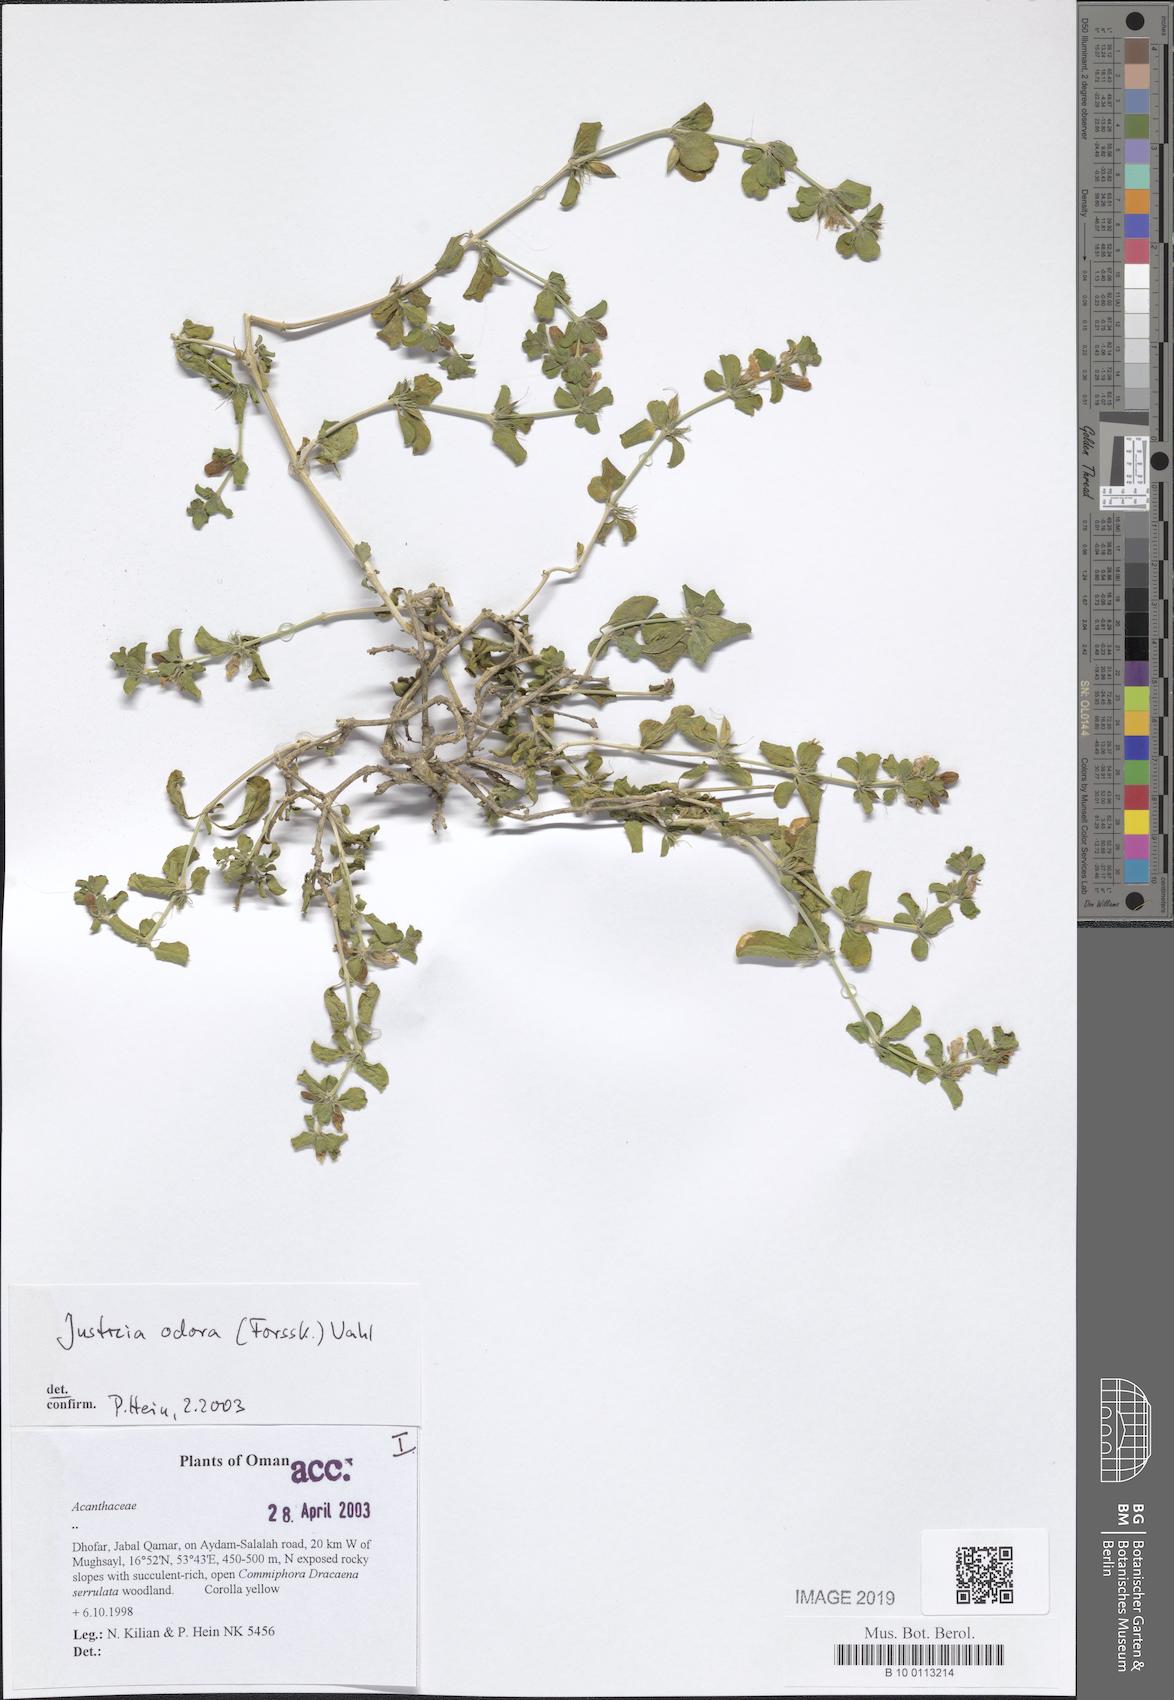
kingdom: Plantae
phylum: Tracheophyta
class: Magnoliopsida
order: Lamiales
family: Acanthaceae
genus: Justicia
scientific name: Justicia odora
